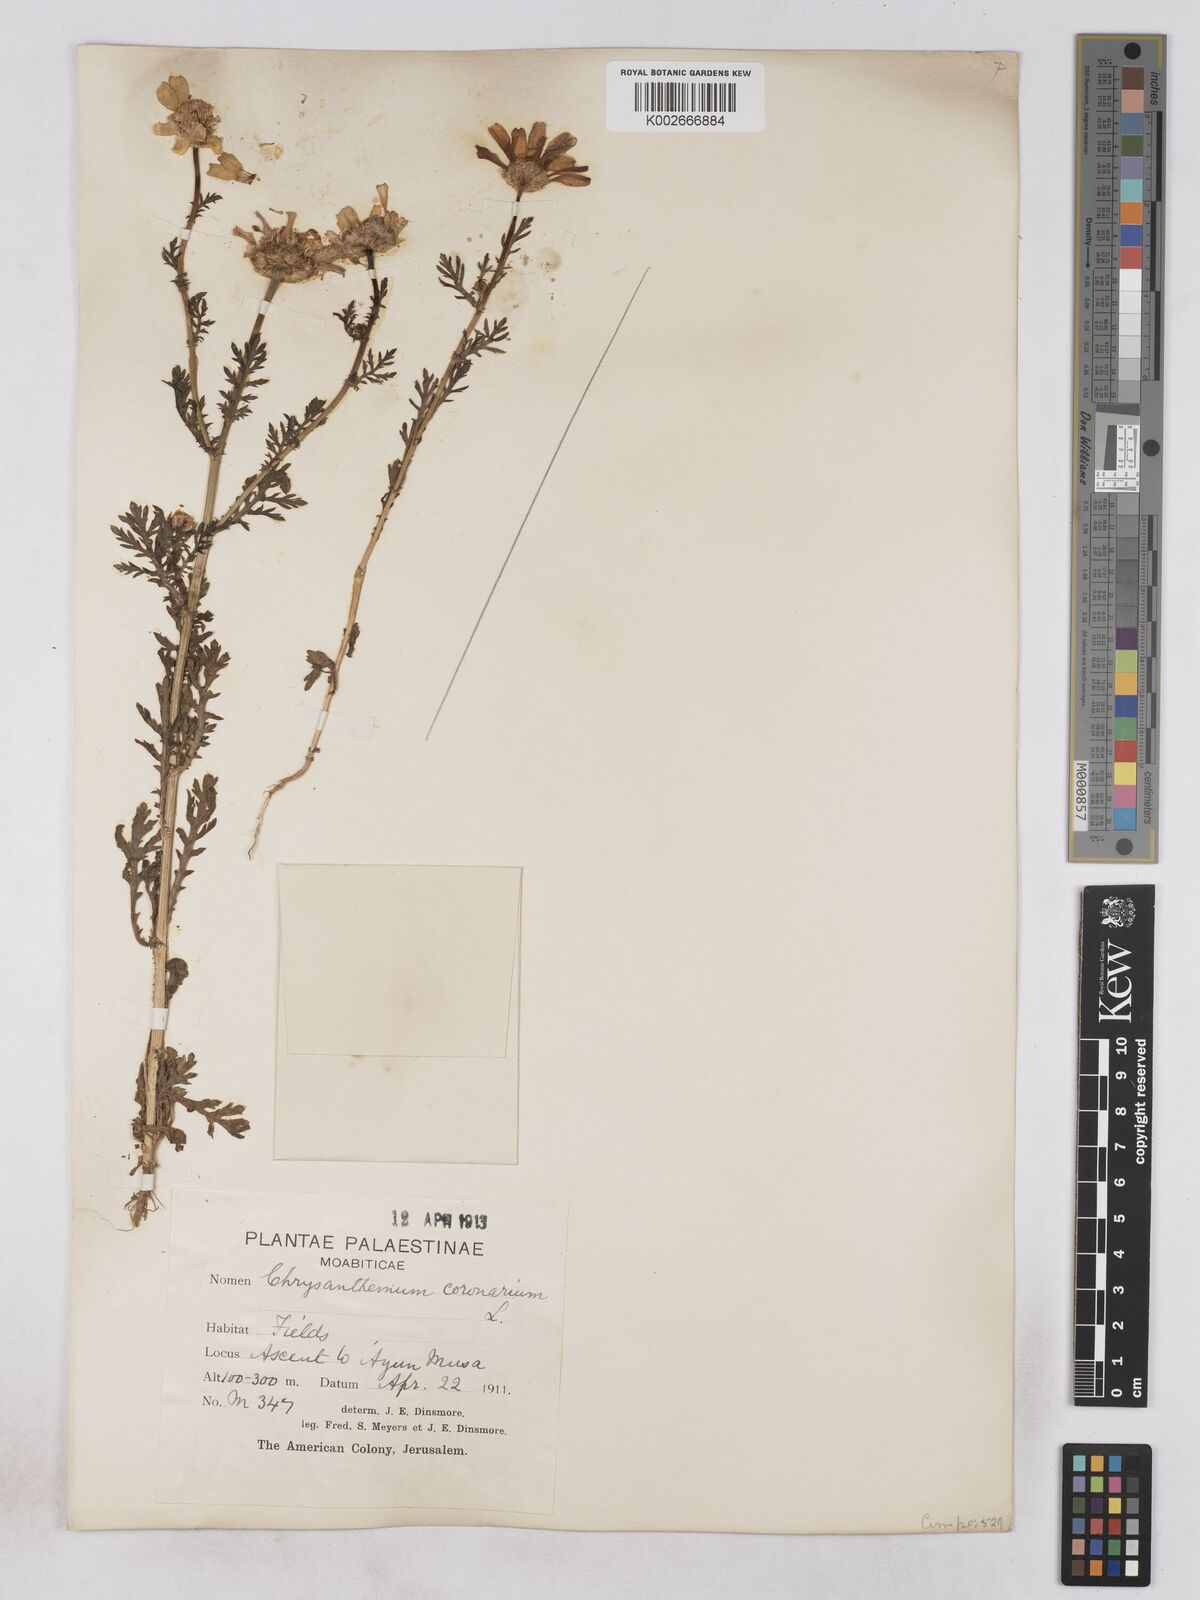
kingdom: Plantae
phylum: Tracheophyta
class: Magnoliopsida
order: Asterales
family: Asteraceae
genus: Glebionis
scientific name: Glebionis coronaria
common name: Crowndaisy
